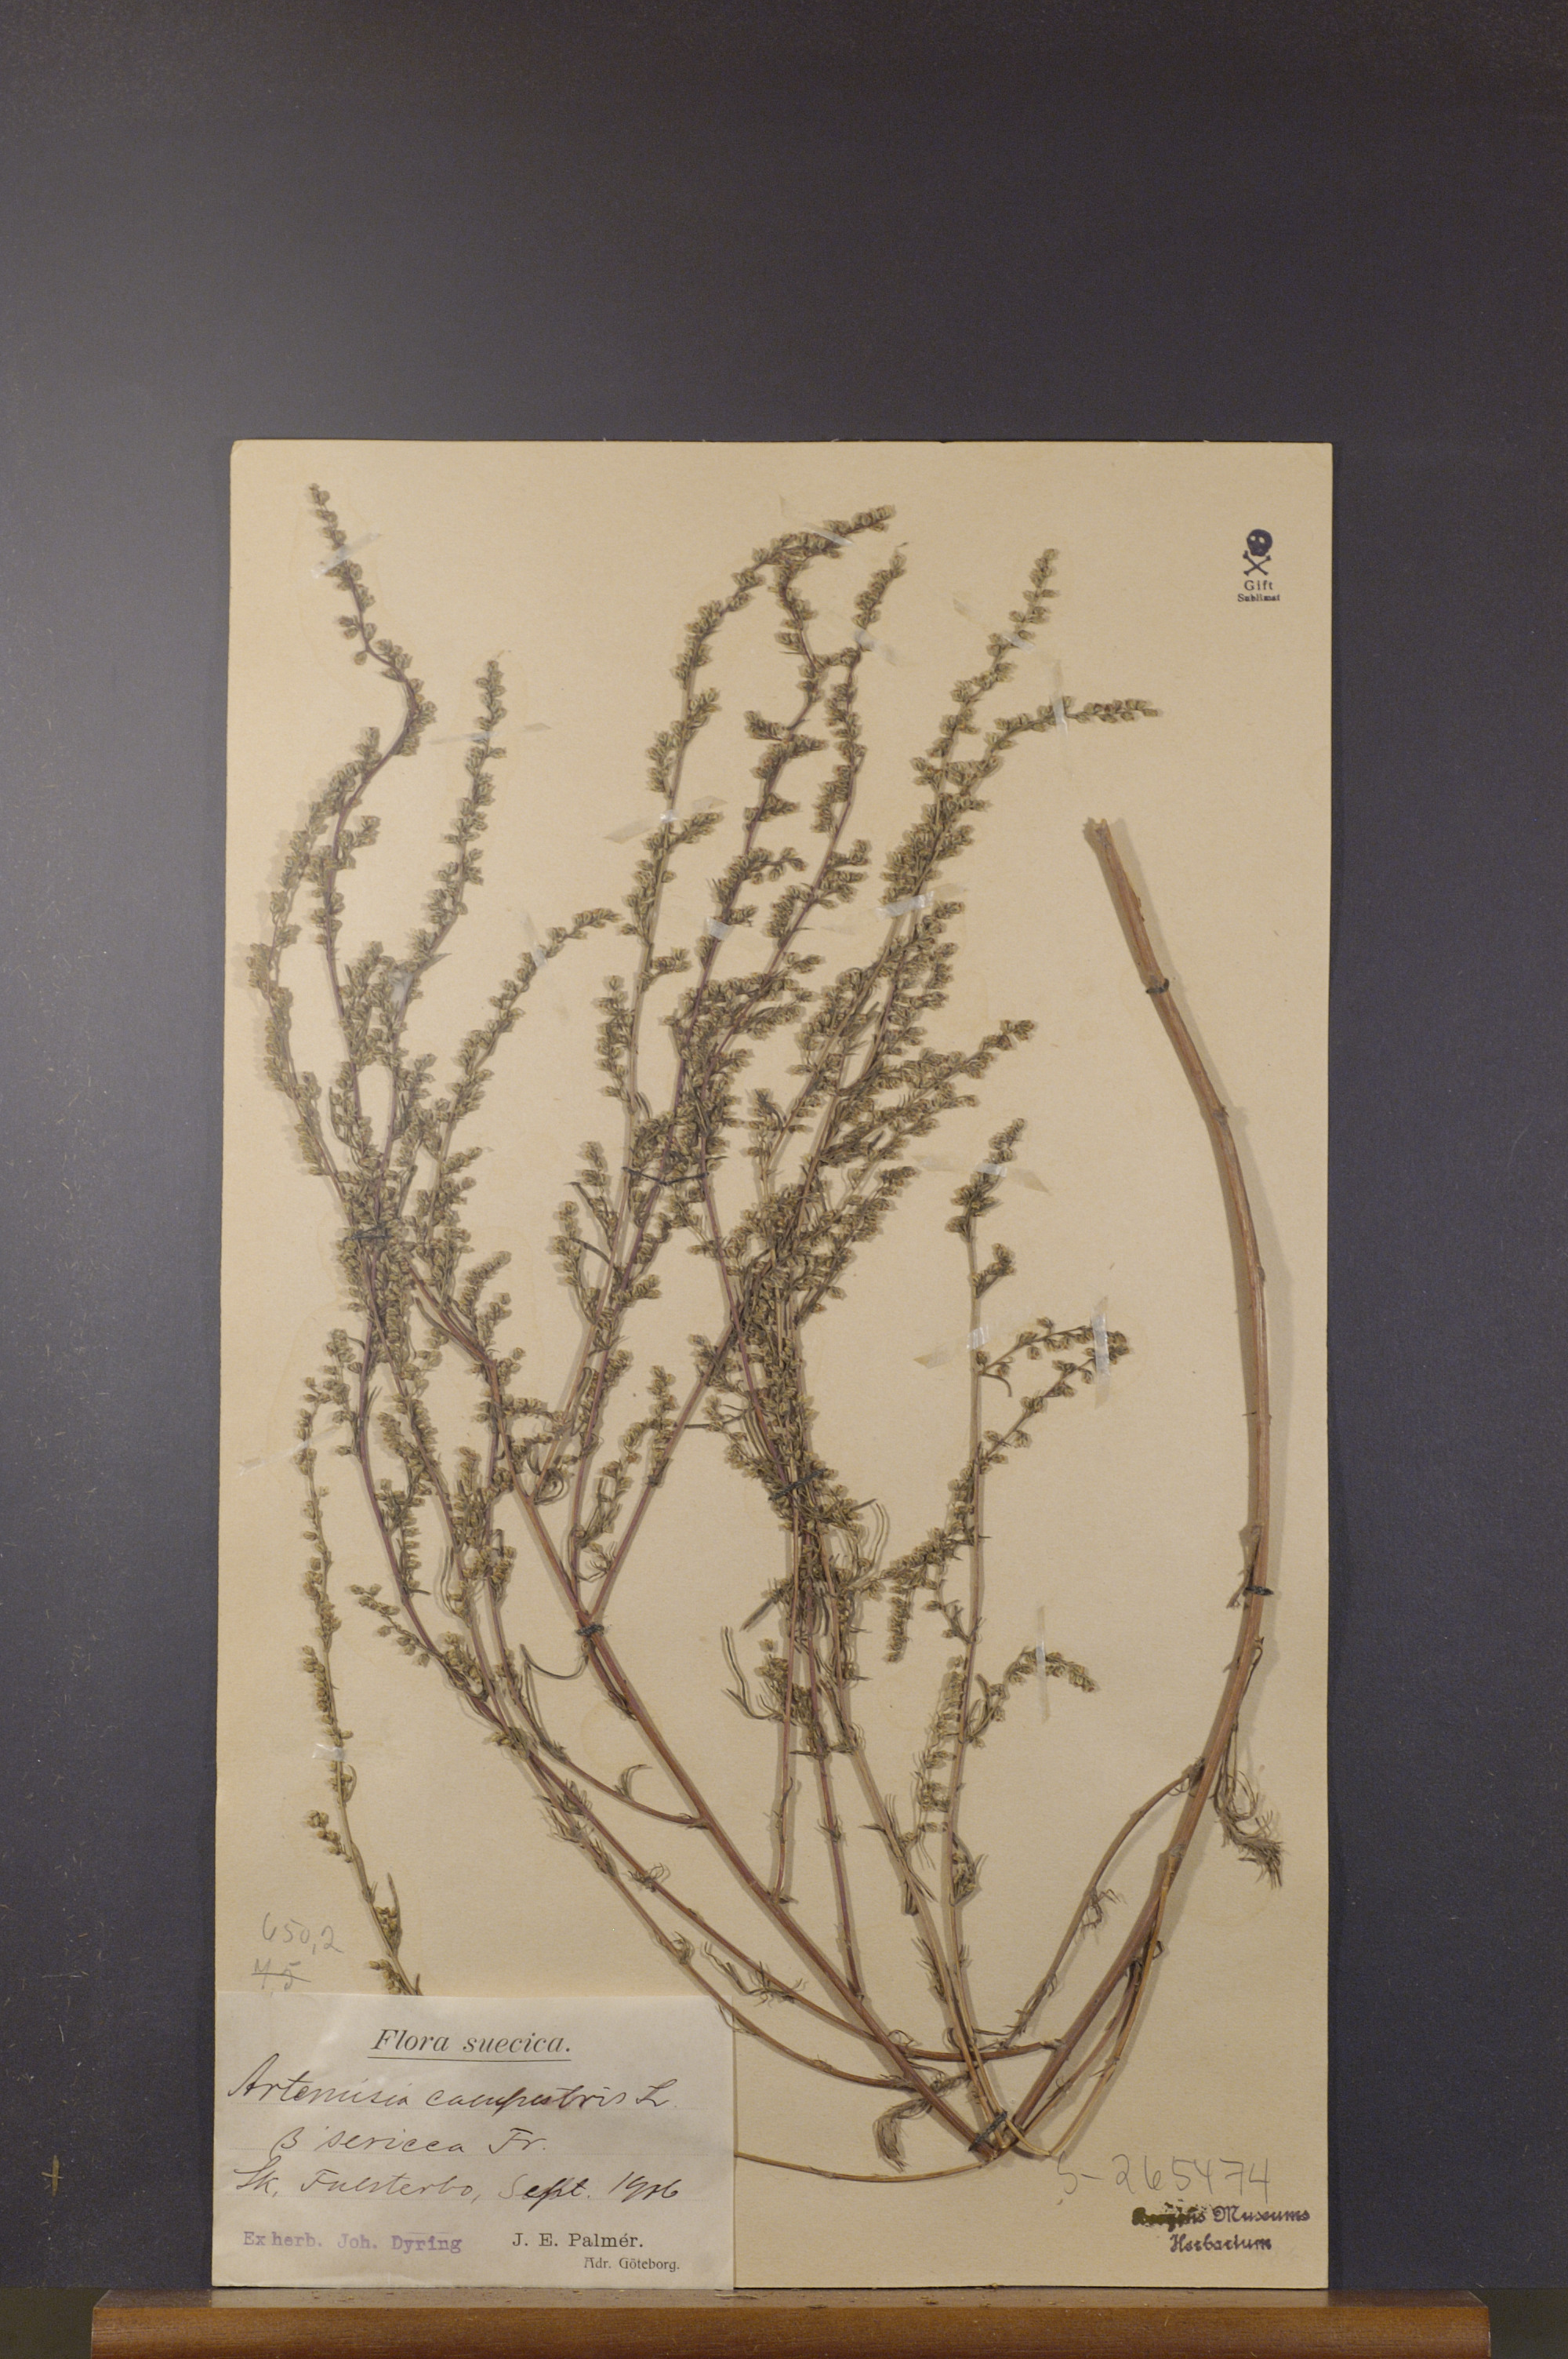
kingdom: Plantae
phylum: Tracheophyta
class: Magnoliopsida
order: Asterales
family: Asteraceae
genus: Artemisia
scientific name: Artemisia campestris
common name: Field wormwood
